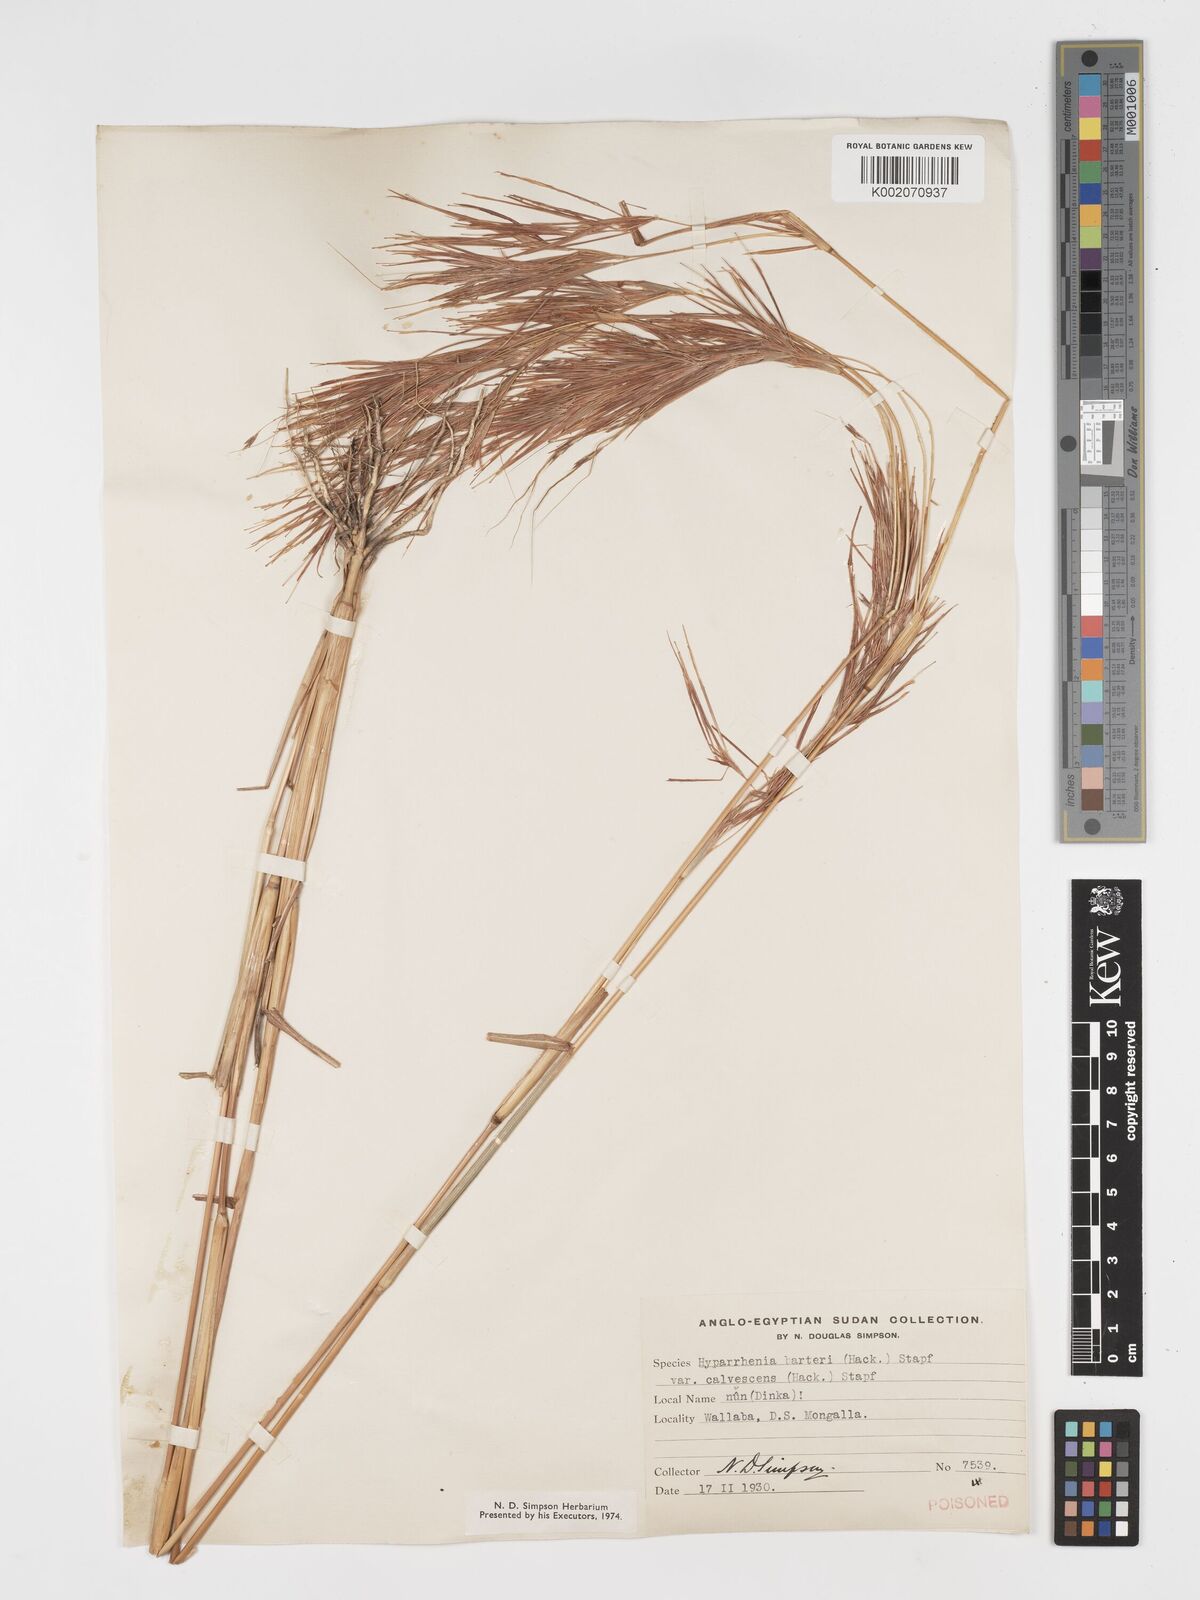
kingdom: Plantae
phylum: Tracheophyta
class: Liliopsida
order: Poales
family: Poaceae
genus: Hyparrhenia
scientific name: Hyparrhenia figariana
